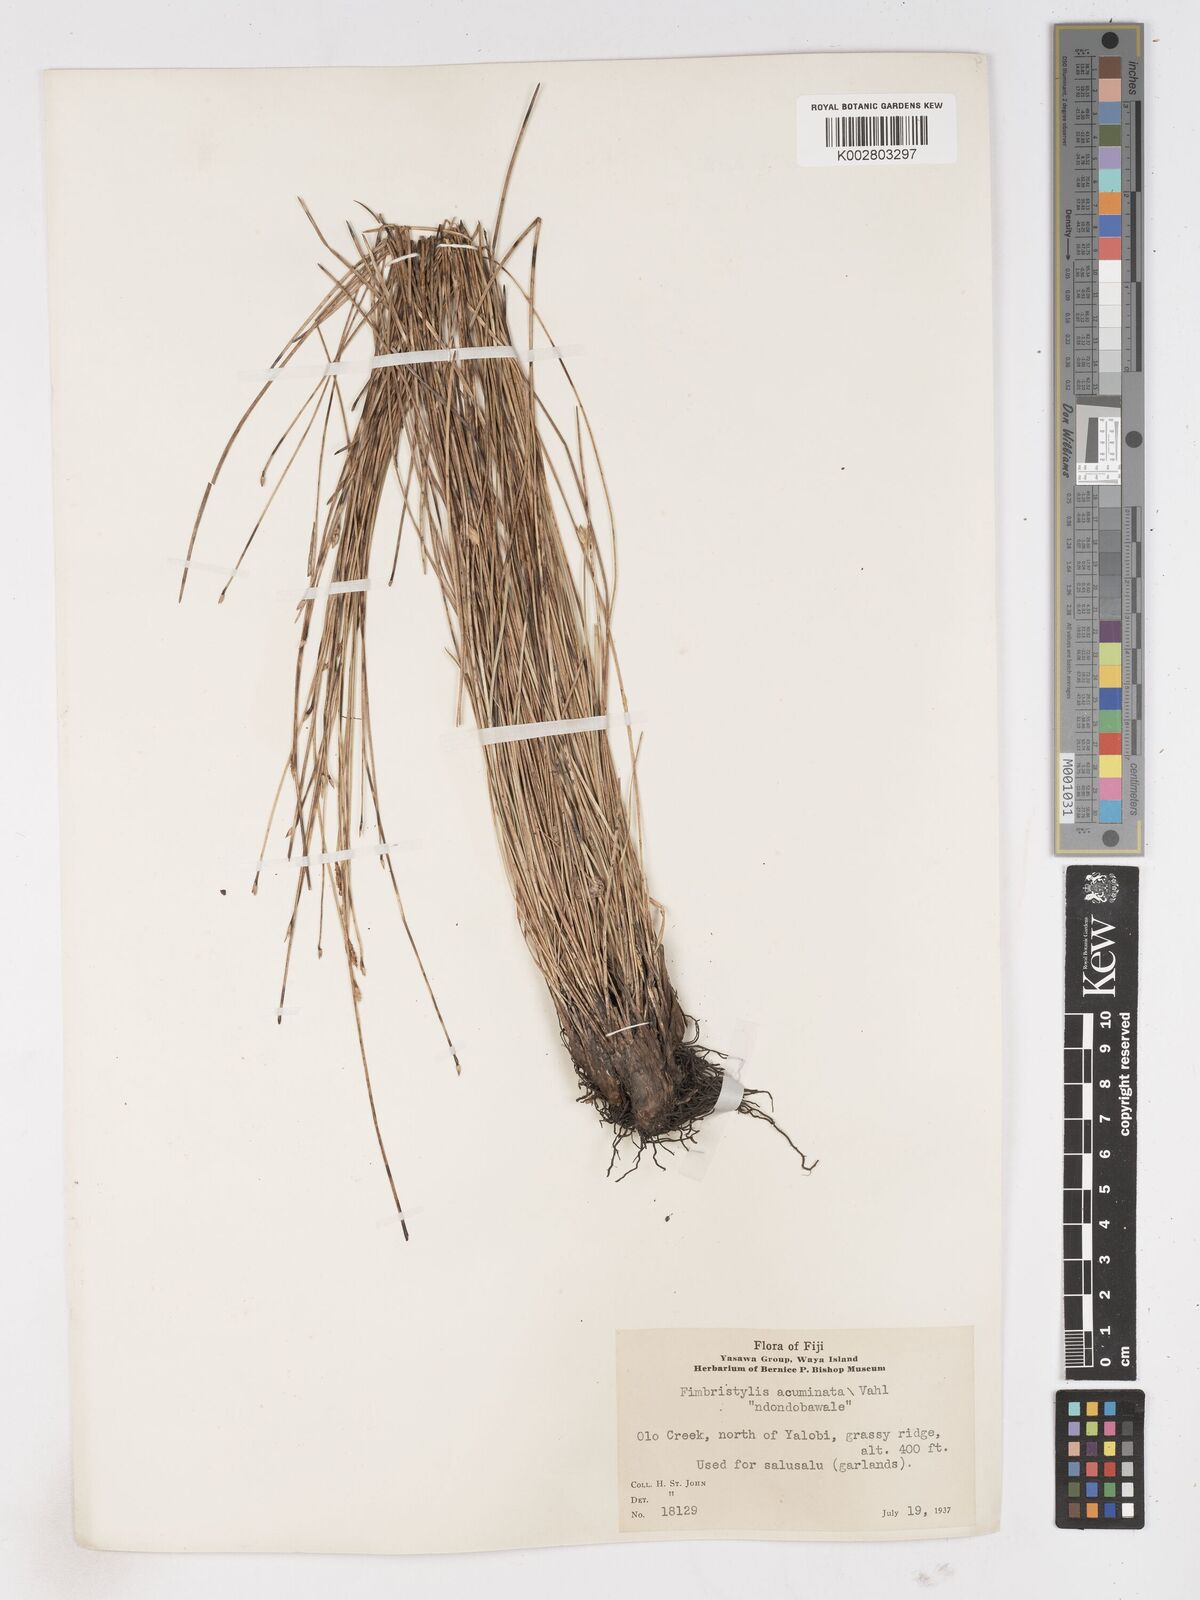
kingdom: Plantae
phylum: Tracheophyta
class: Liliopsida
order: Poales
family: Cyperaceae
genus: Abildgaardia
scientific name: Abildgaardia ovata
